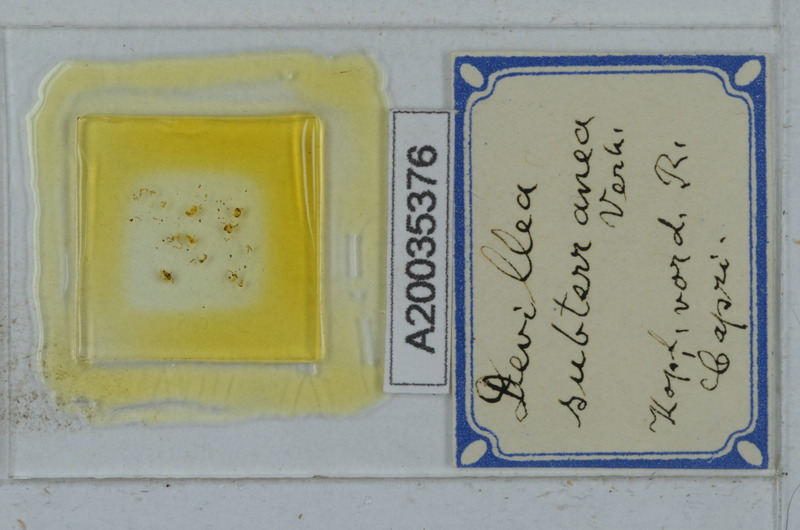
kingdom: Animalia
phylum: Arthropoda
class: Diplopoda
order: Polydesmida
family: Xystodesmidae
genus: Devillea
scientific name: Devillea subterranea
